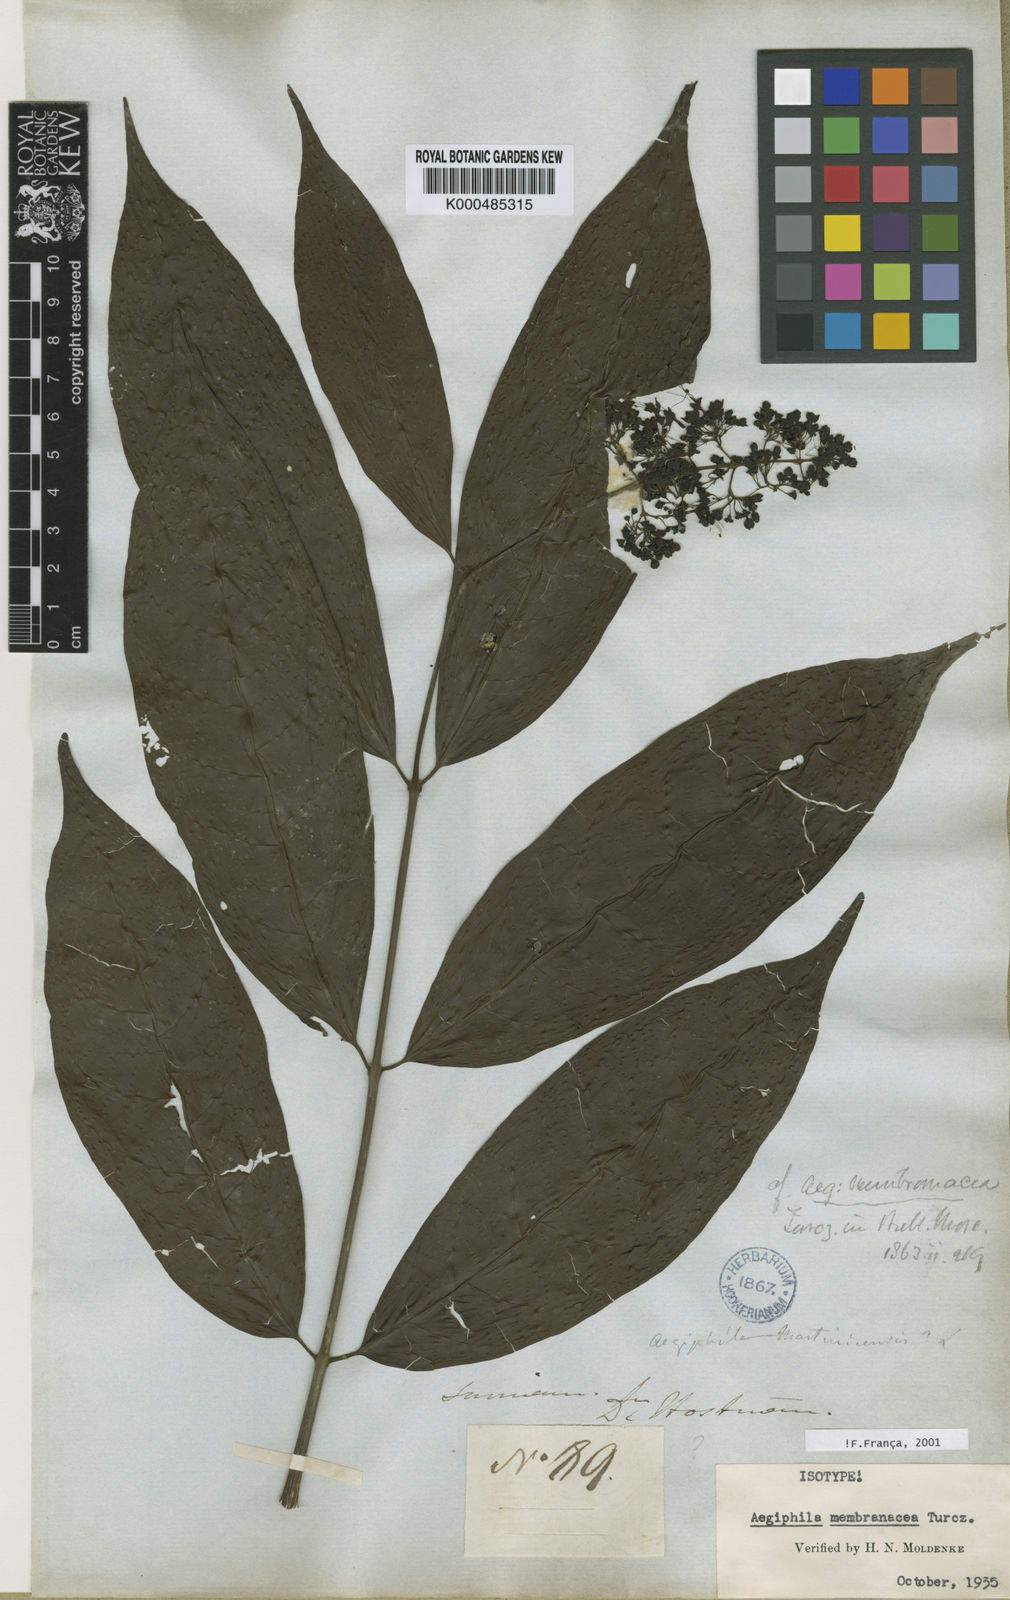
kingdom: Plantae
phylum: Tracheophyta
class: Magnoliopsida
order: Lamiales
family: Lamiaceae
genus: Aegiphila
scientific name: Aegiphila membranacea
